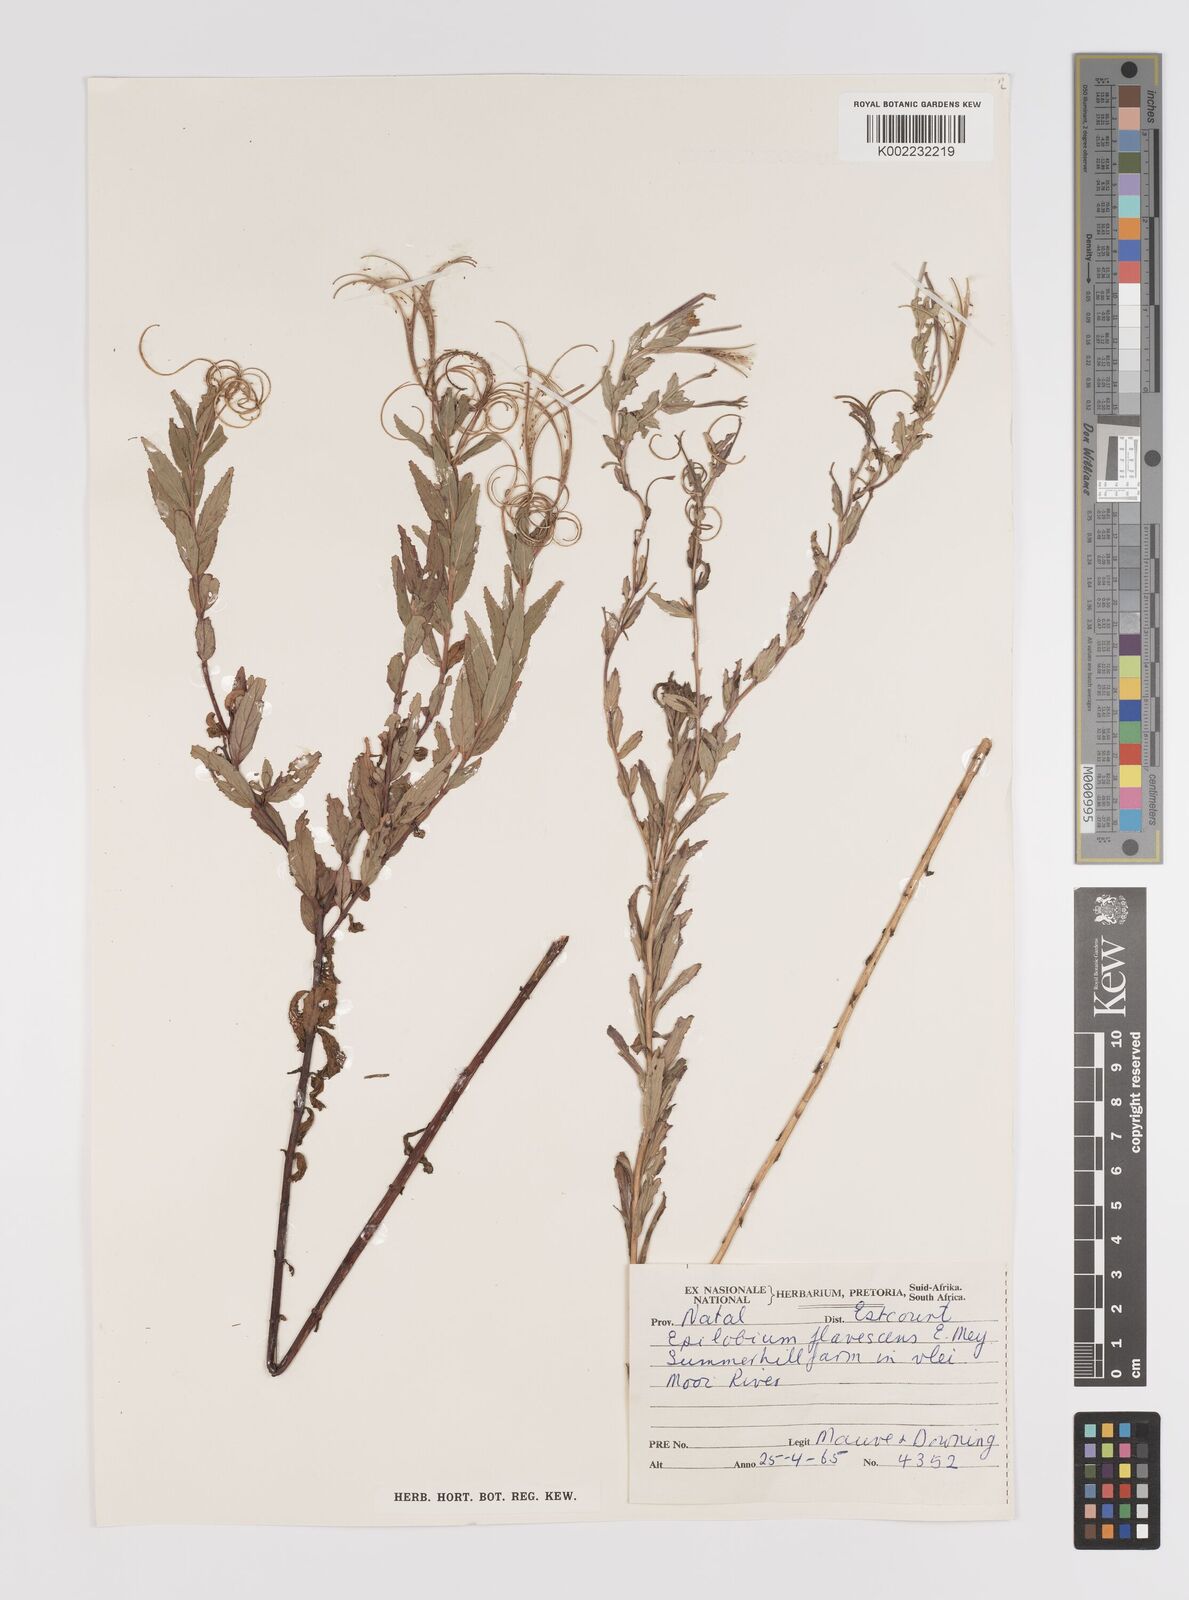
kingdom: Plantae
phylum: Tracheophyta
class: Magnoliopsida
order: Myrtales
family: Onagraceae
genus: Epilobium
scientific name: Epilobium capense
